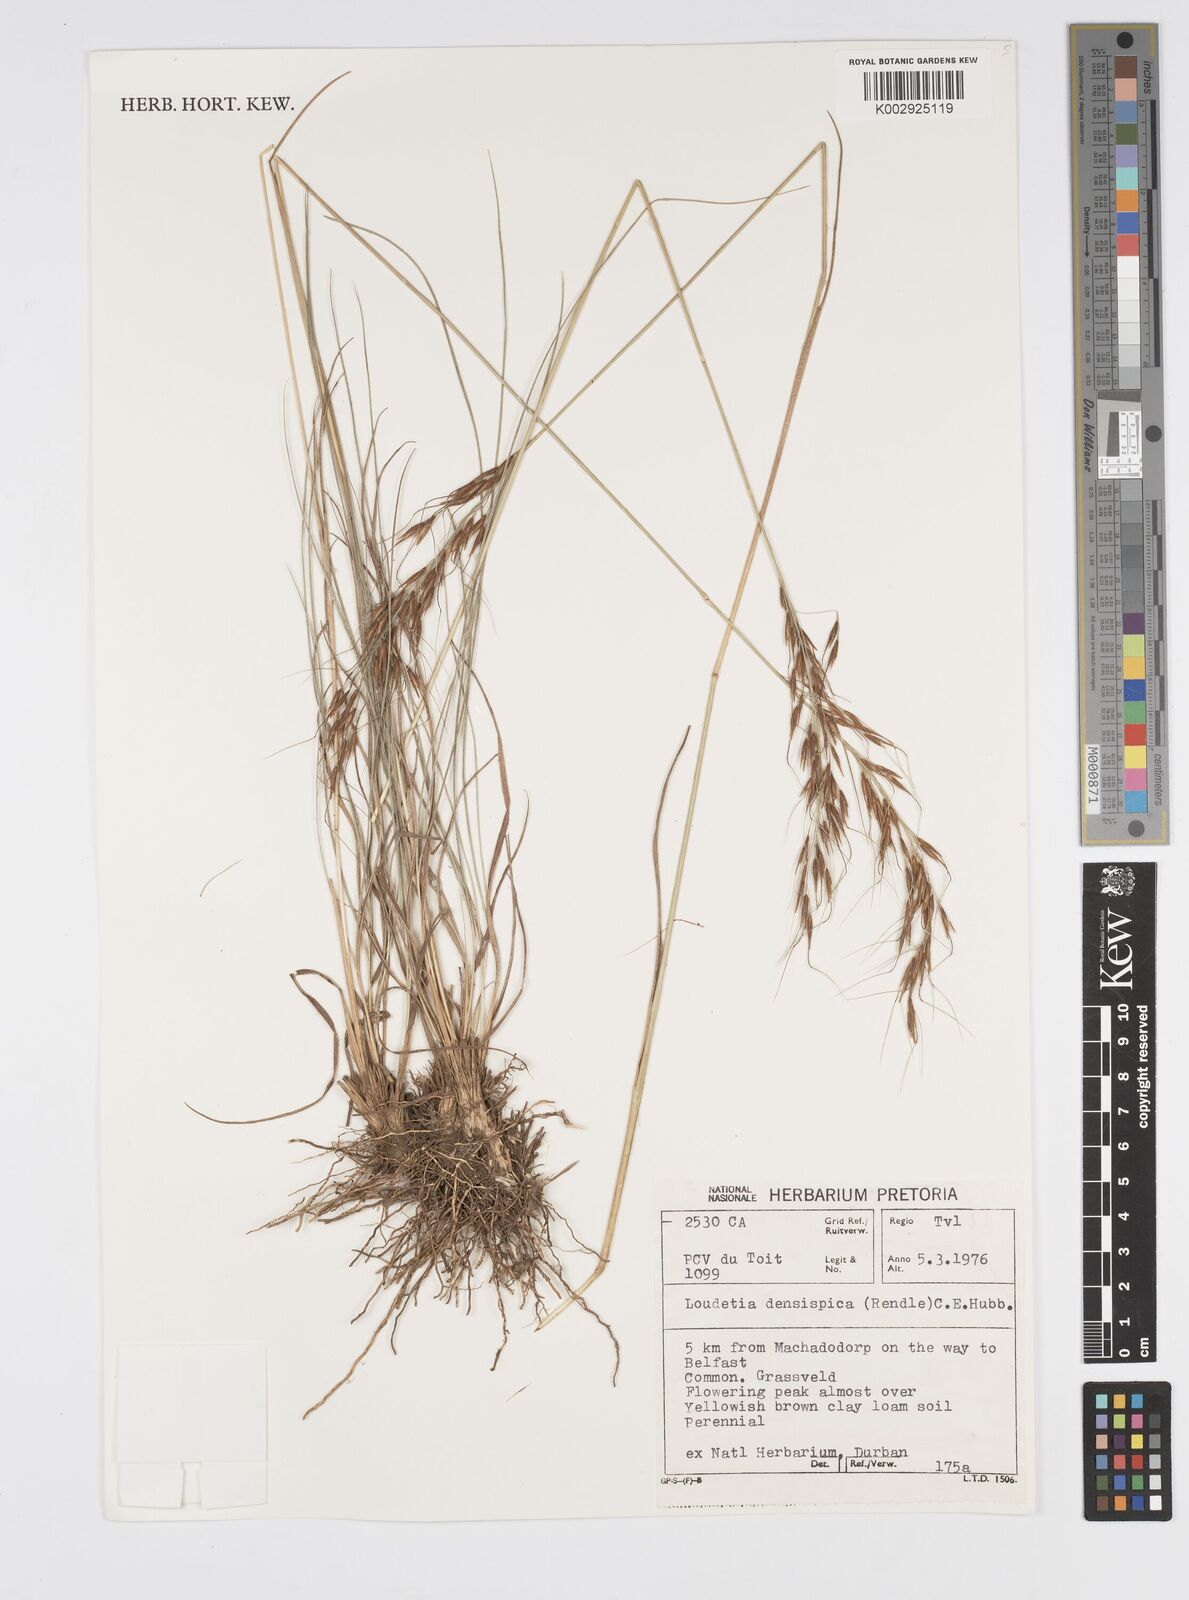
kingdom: Plantae
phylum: Tracheophyta
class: Liliopsida
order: Poales
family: Poaceae
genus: Loudetia
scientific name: Loudetia
